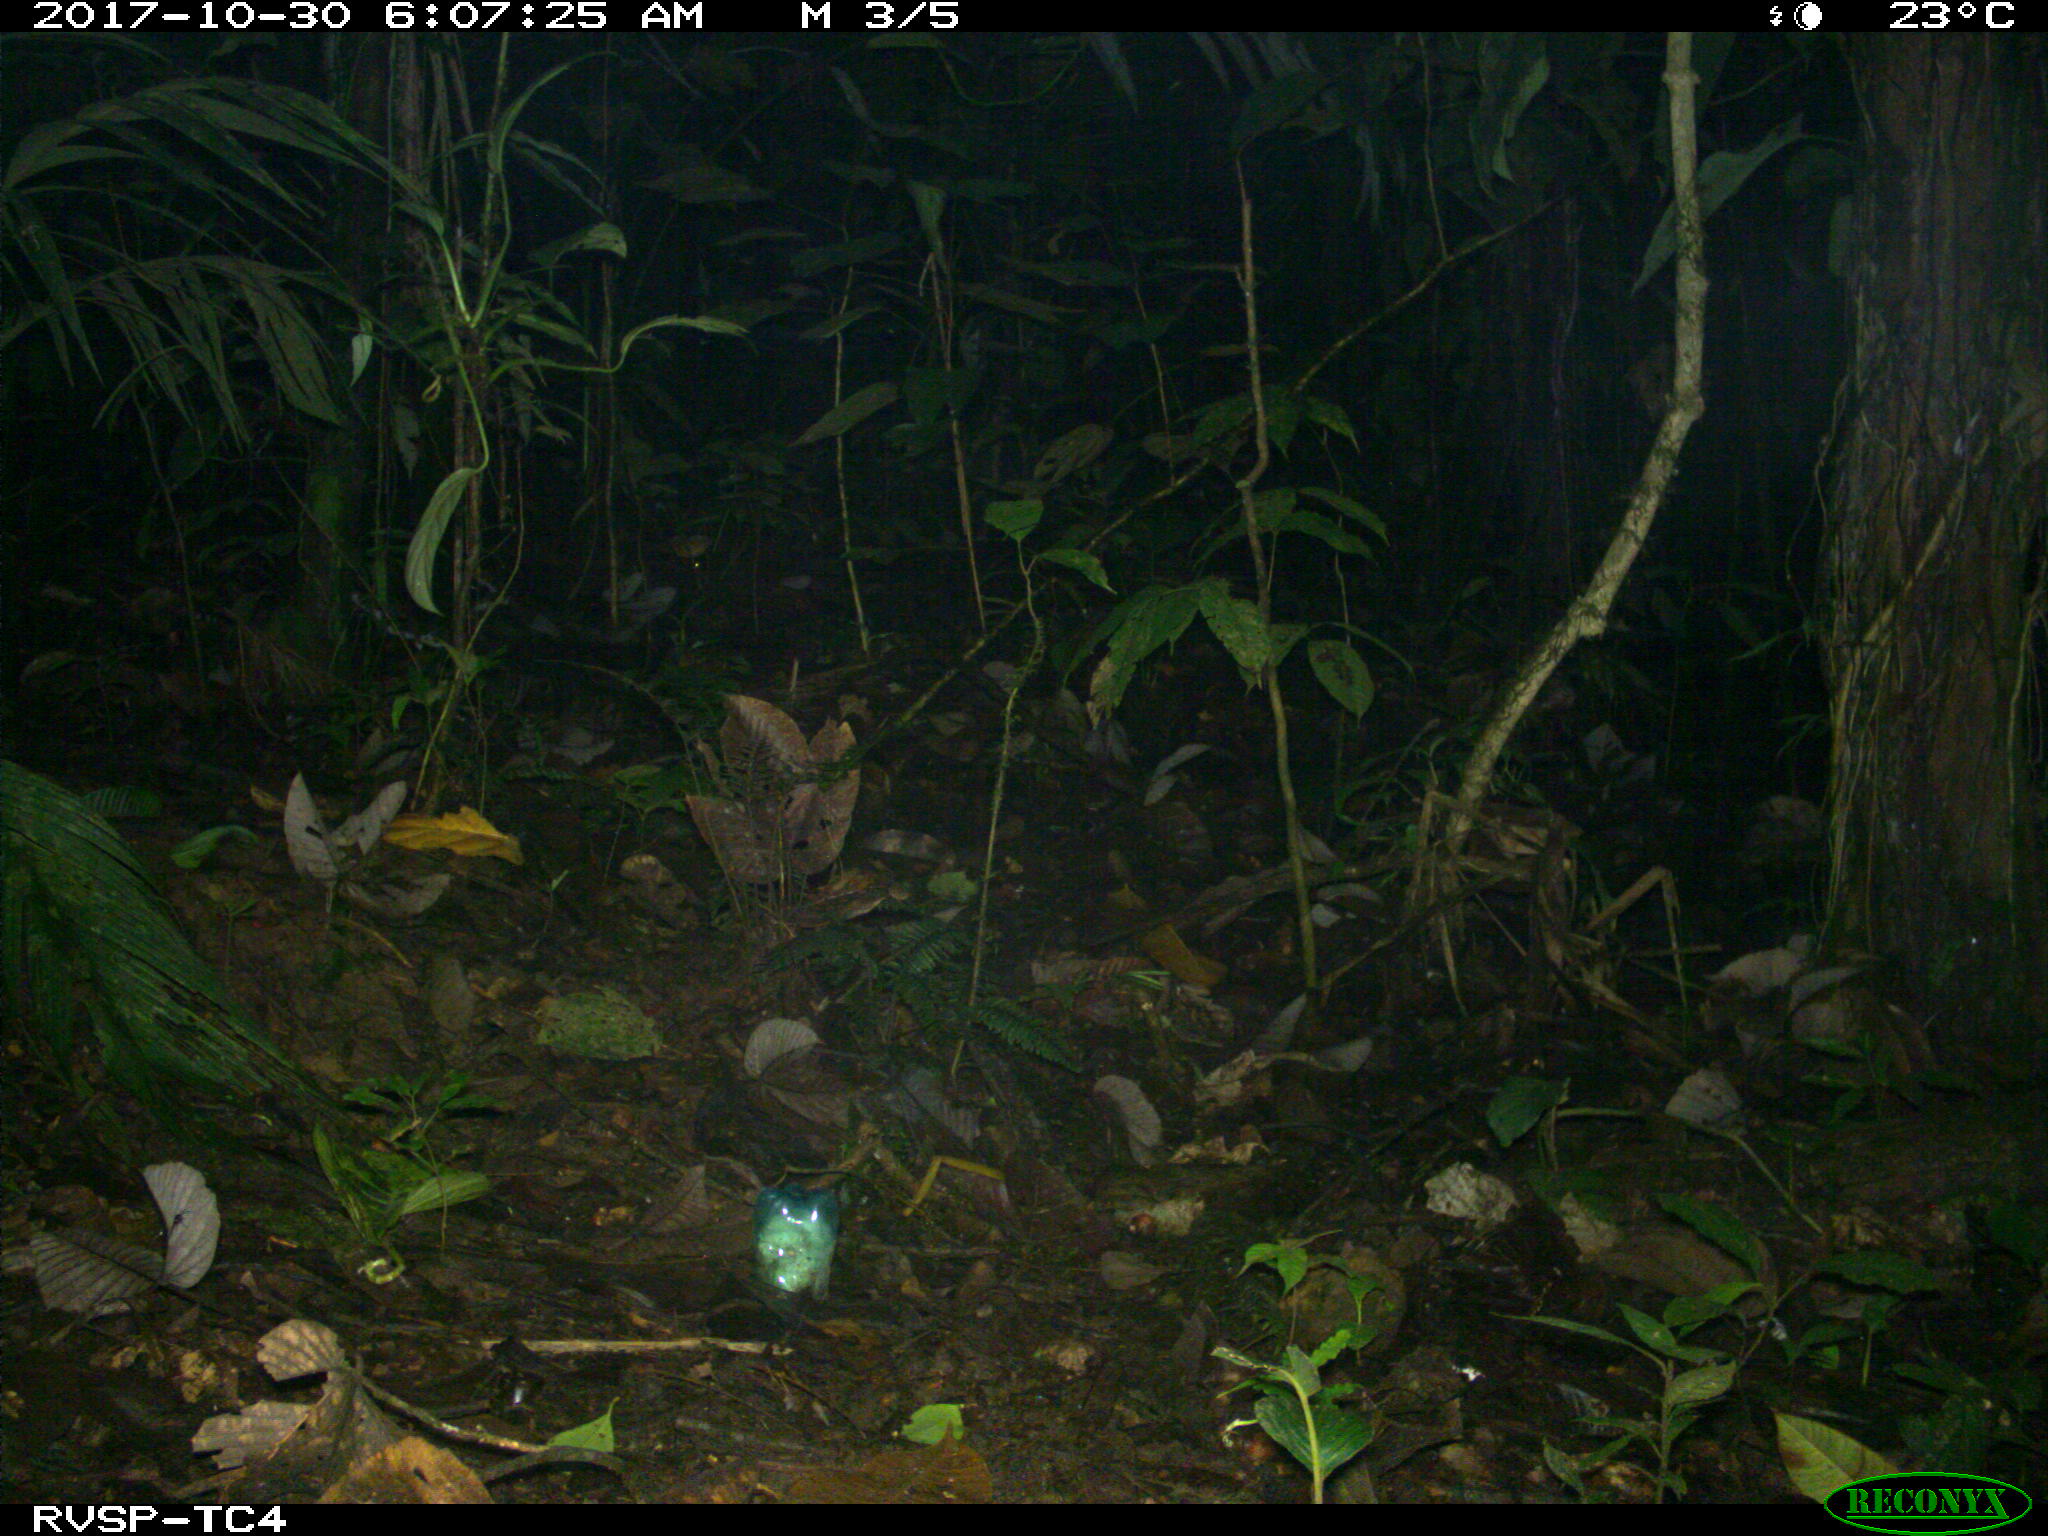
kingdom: Animalia
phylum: Chordata
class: Mammalia
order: Rodentia
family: Sciuridae
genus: Sciurus
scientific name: Sciurus granatensis
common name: Red-tailed squirrel
